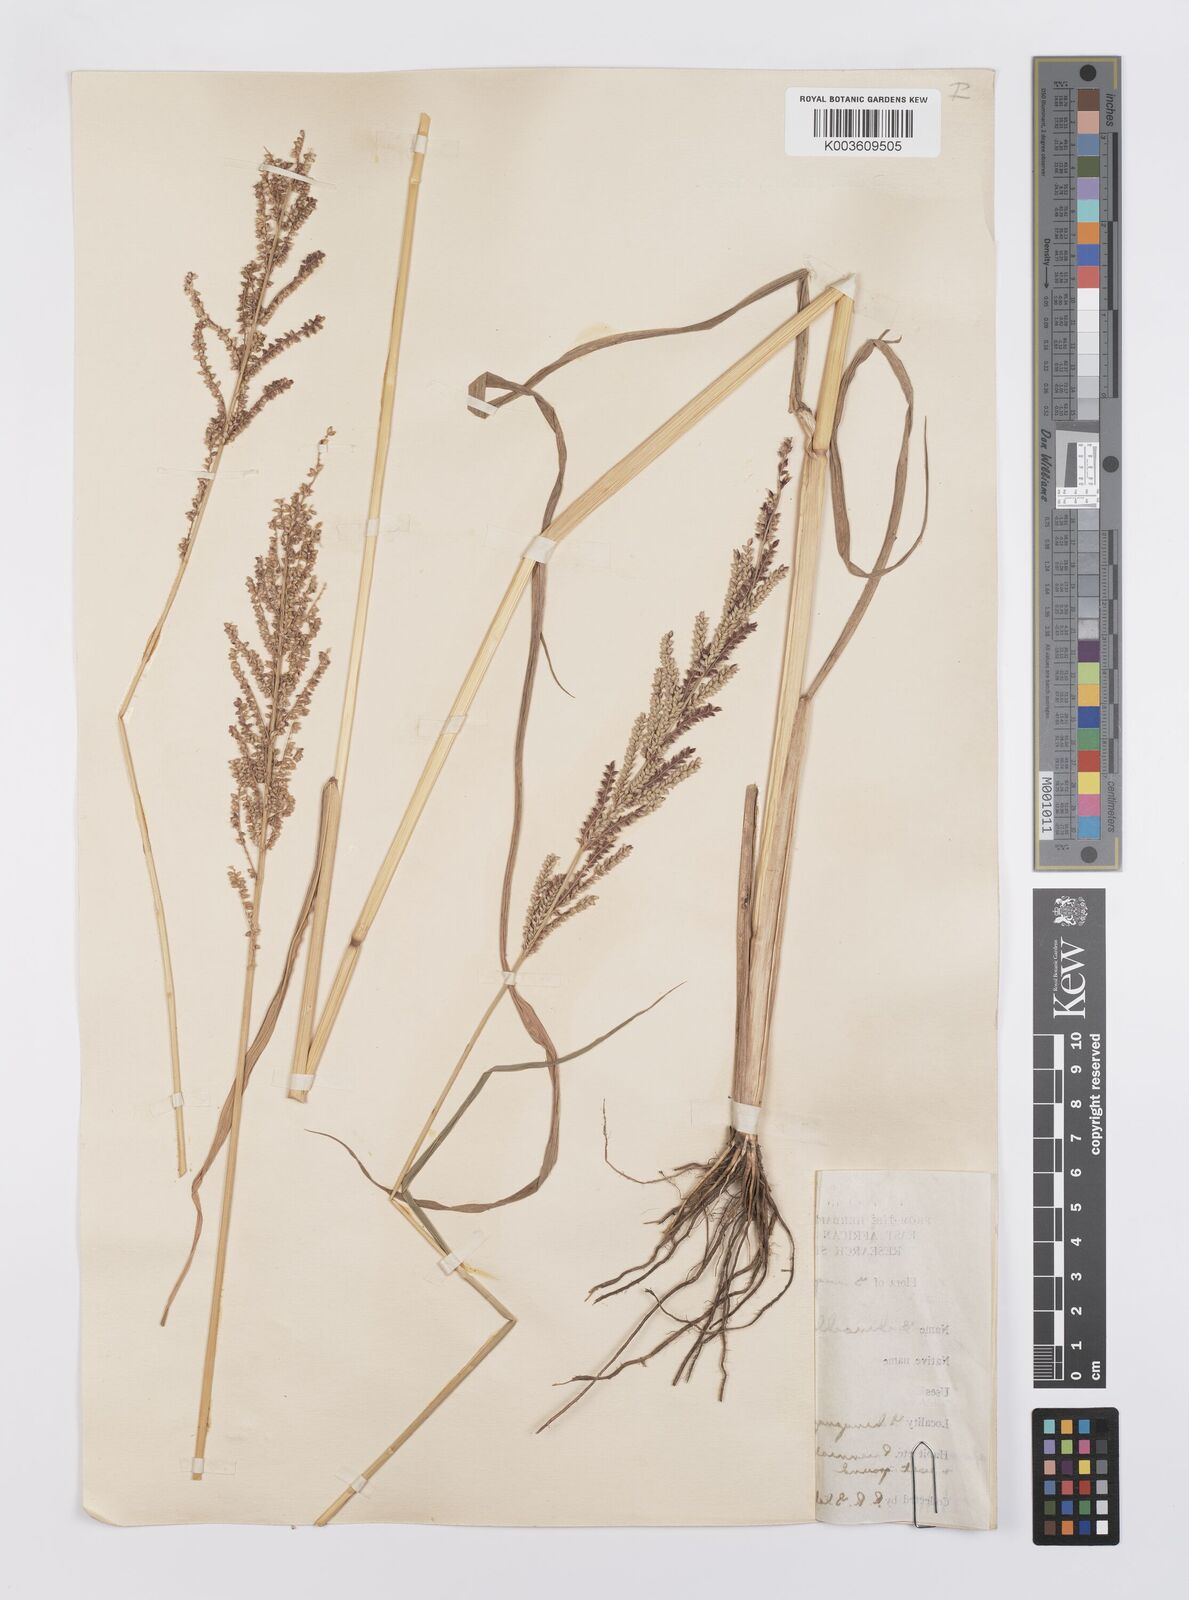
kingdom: Plantae
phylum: Tracheophyta
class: Liliopsida
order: Poales
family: Poaceae
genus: Echinochloa
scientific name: Echinochloa haploclada
